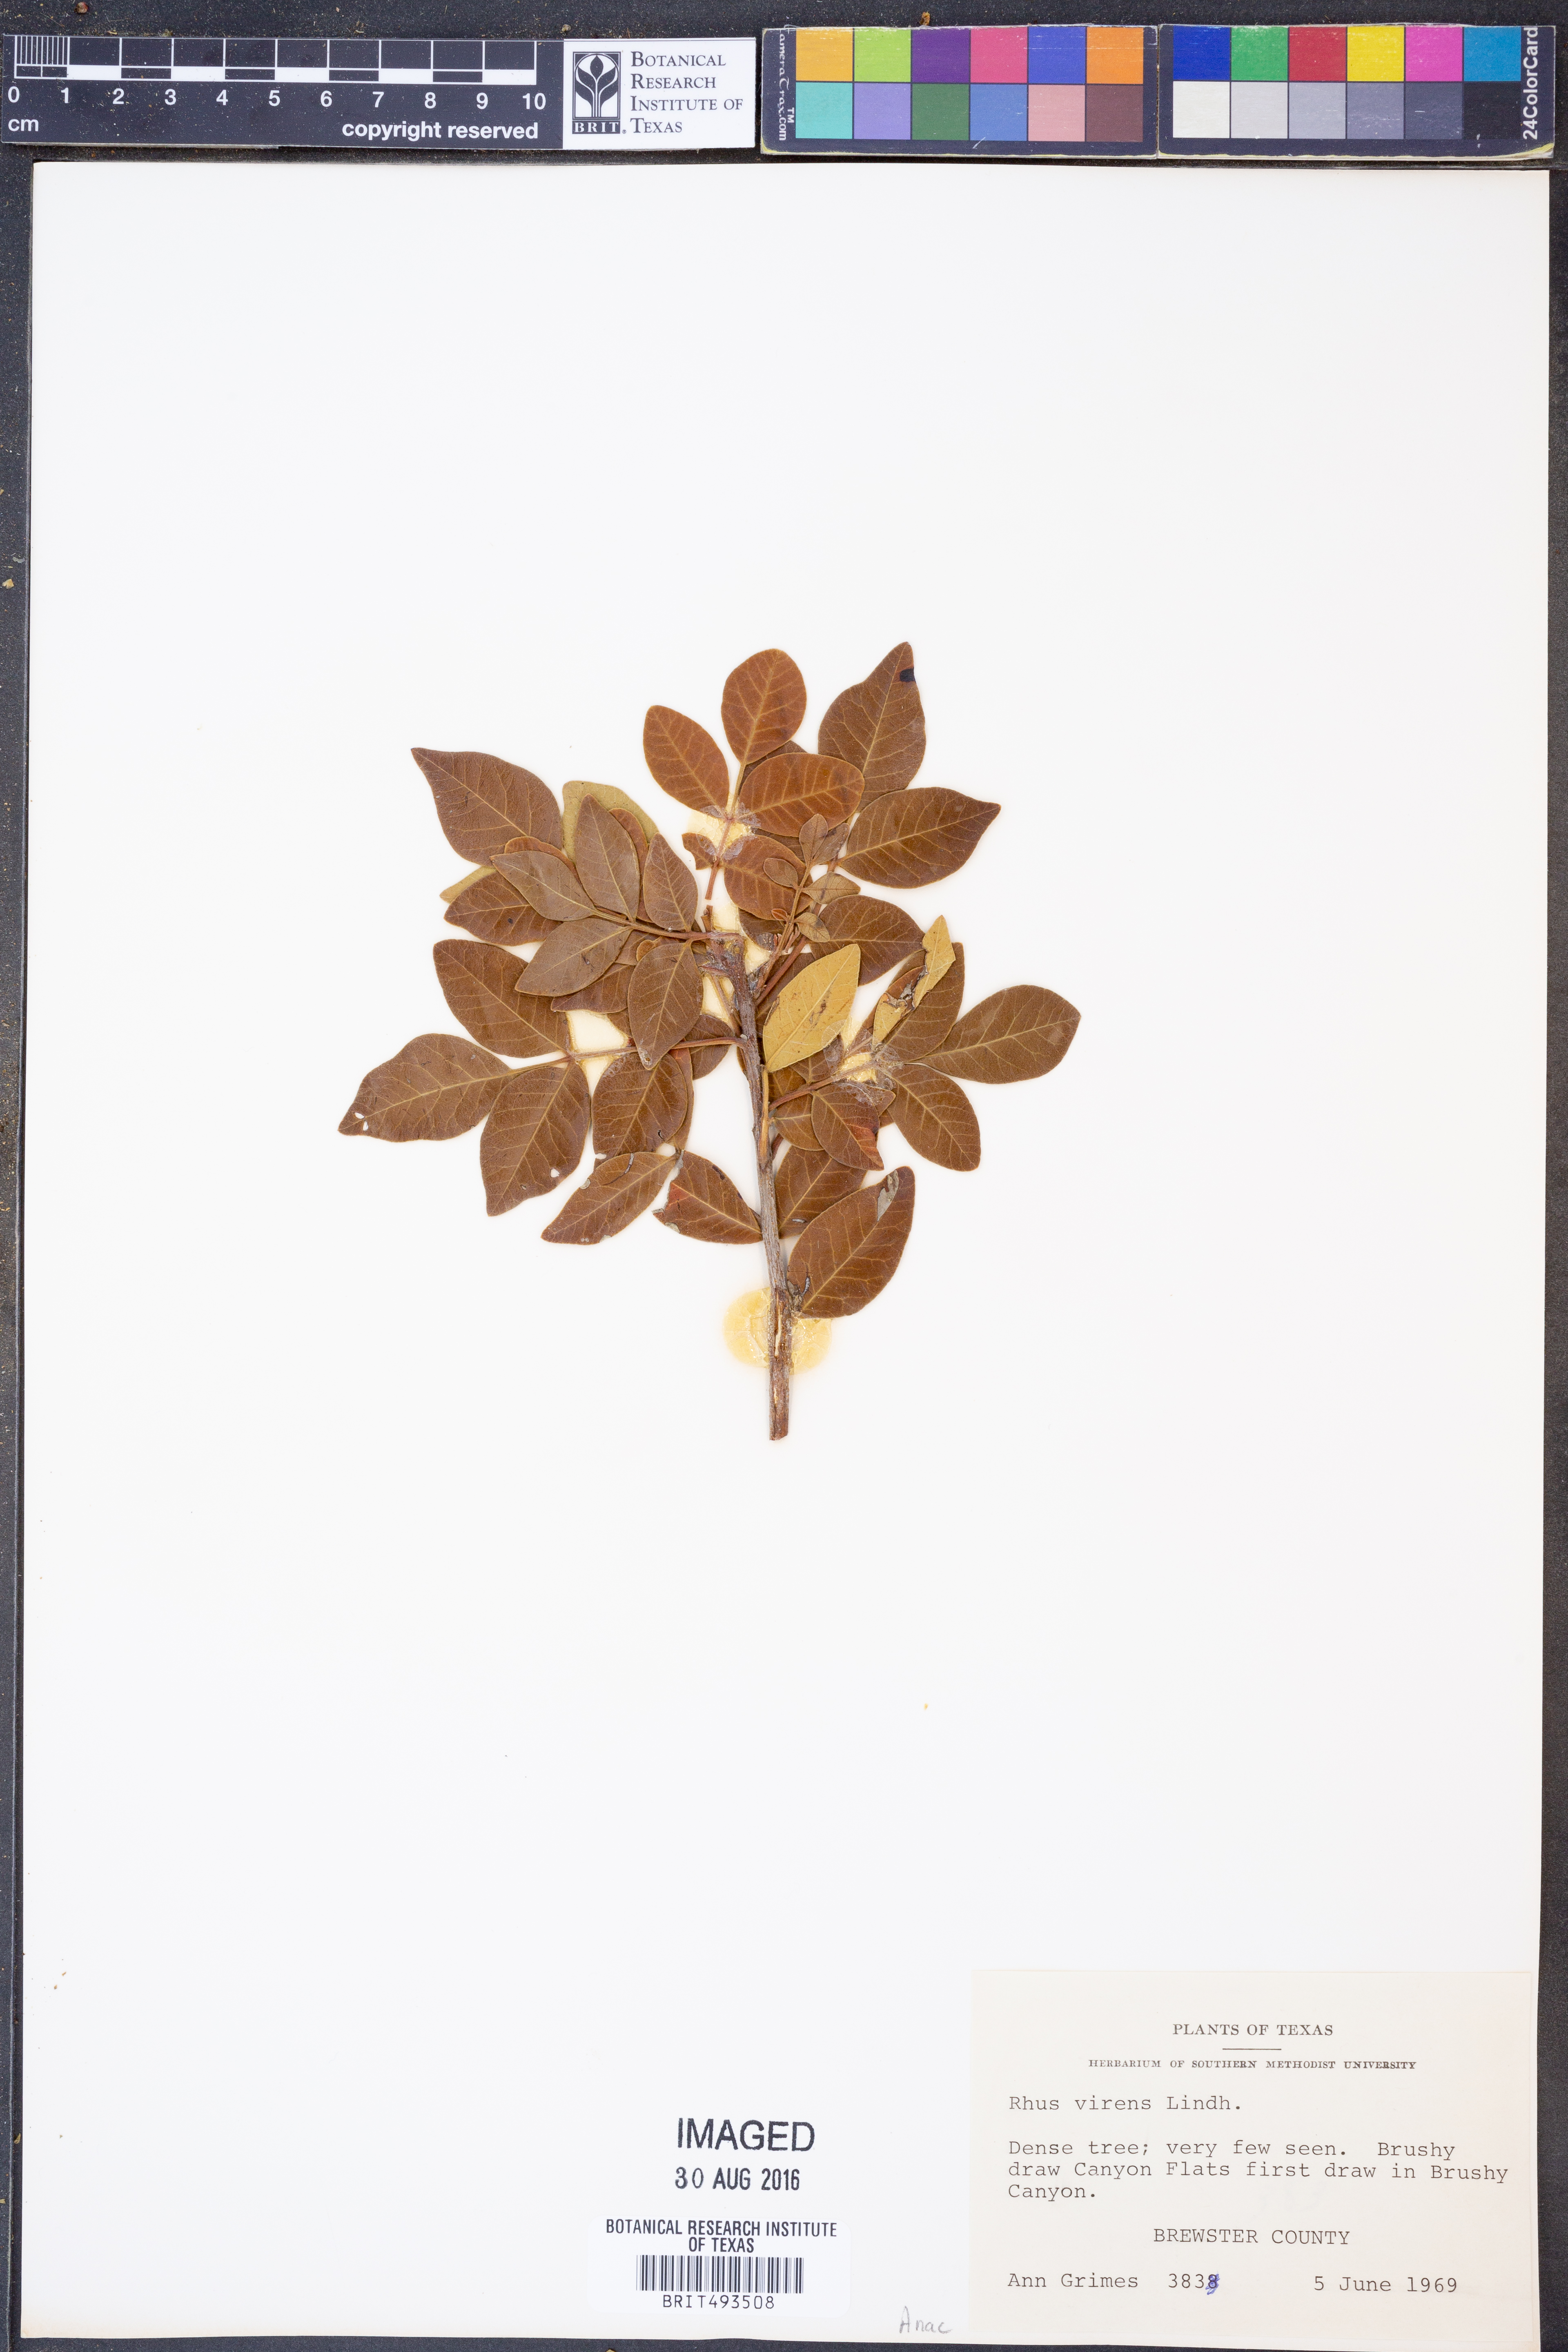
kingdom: Plantae
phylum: Tracheophyta
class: Magnoliopsida
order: Sapindales
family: Anacardiaceae
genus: Rhus
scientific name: Rhus virens
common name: Evergreen sumac
